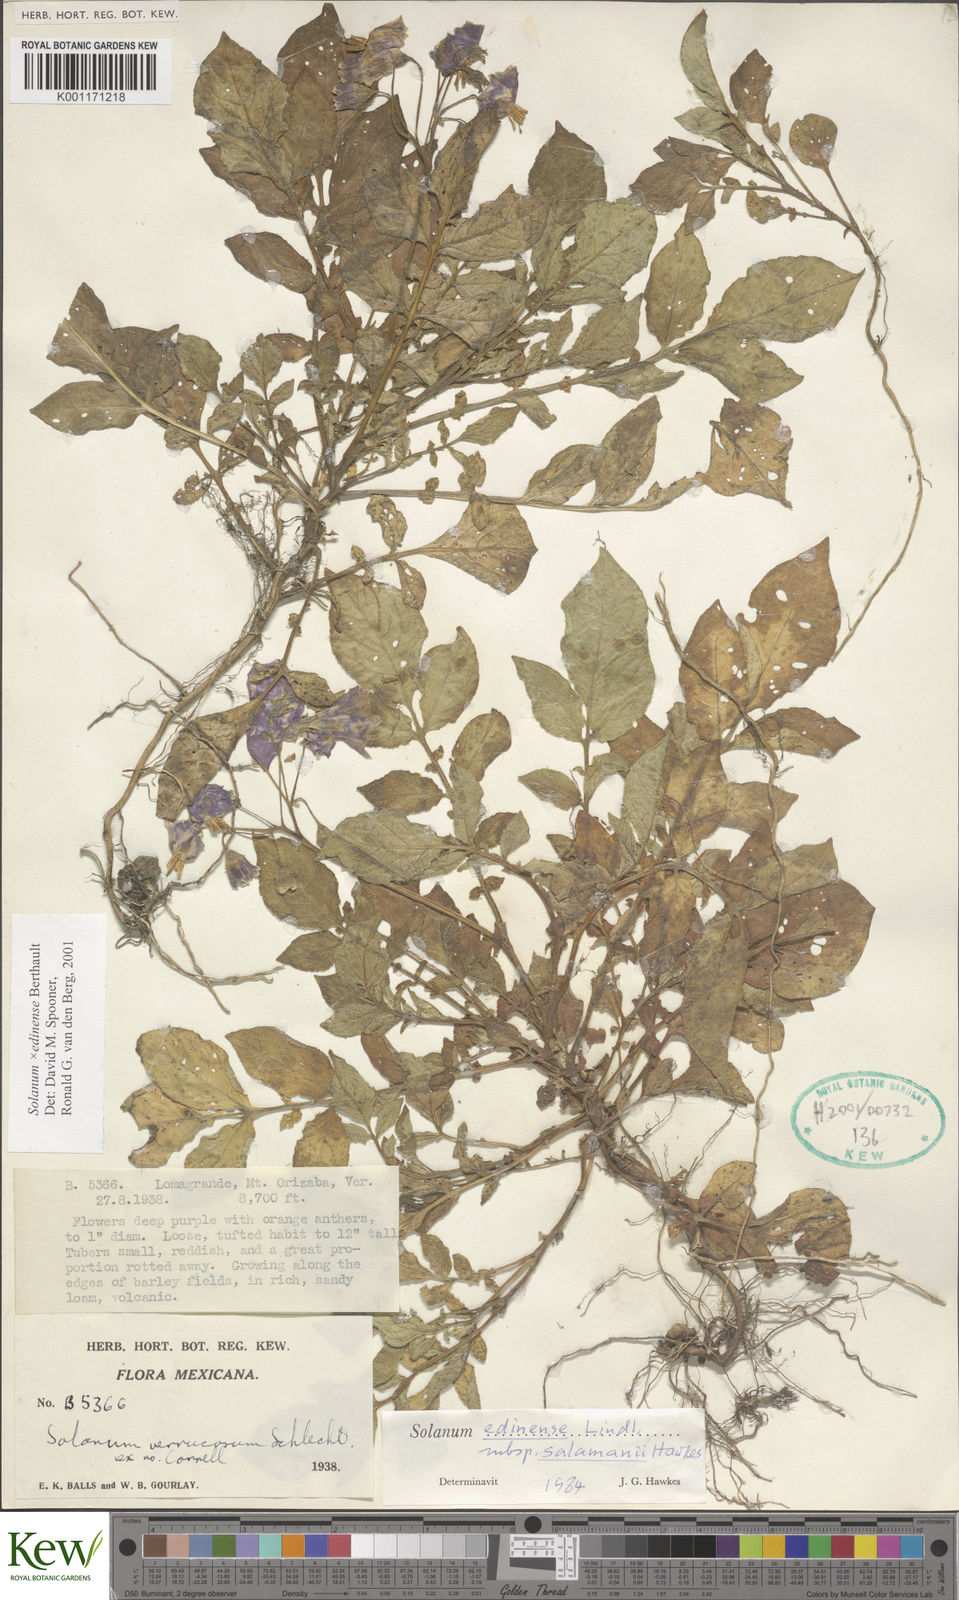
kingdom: Plantae
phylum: Tracheophyta
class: Magnoliopsida
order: Solanales
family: Solanaceae
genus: Solanum
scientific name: Solanum edinense
